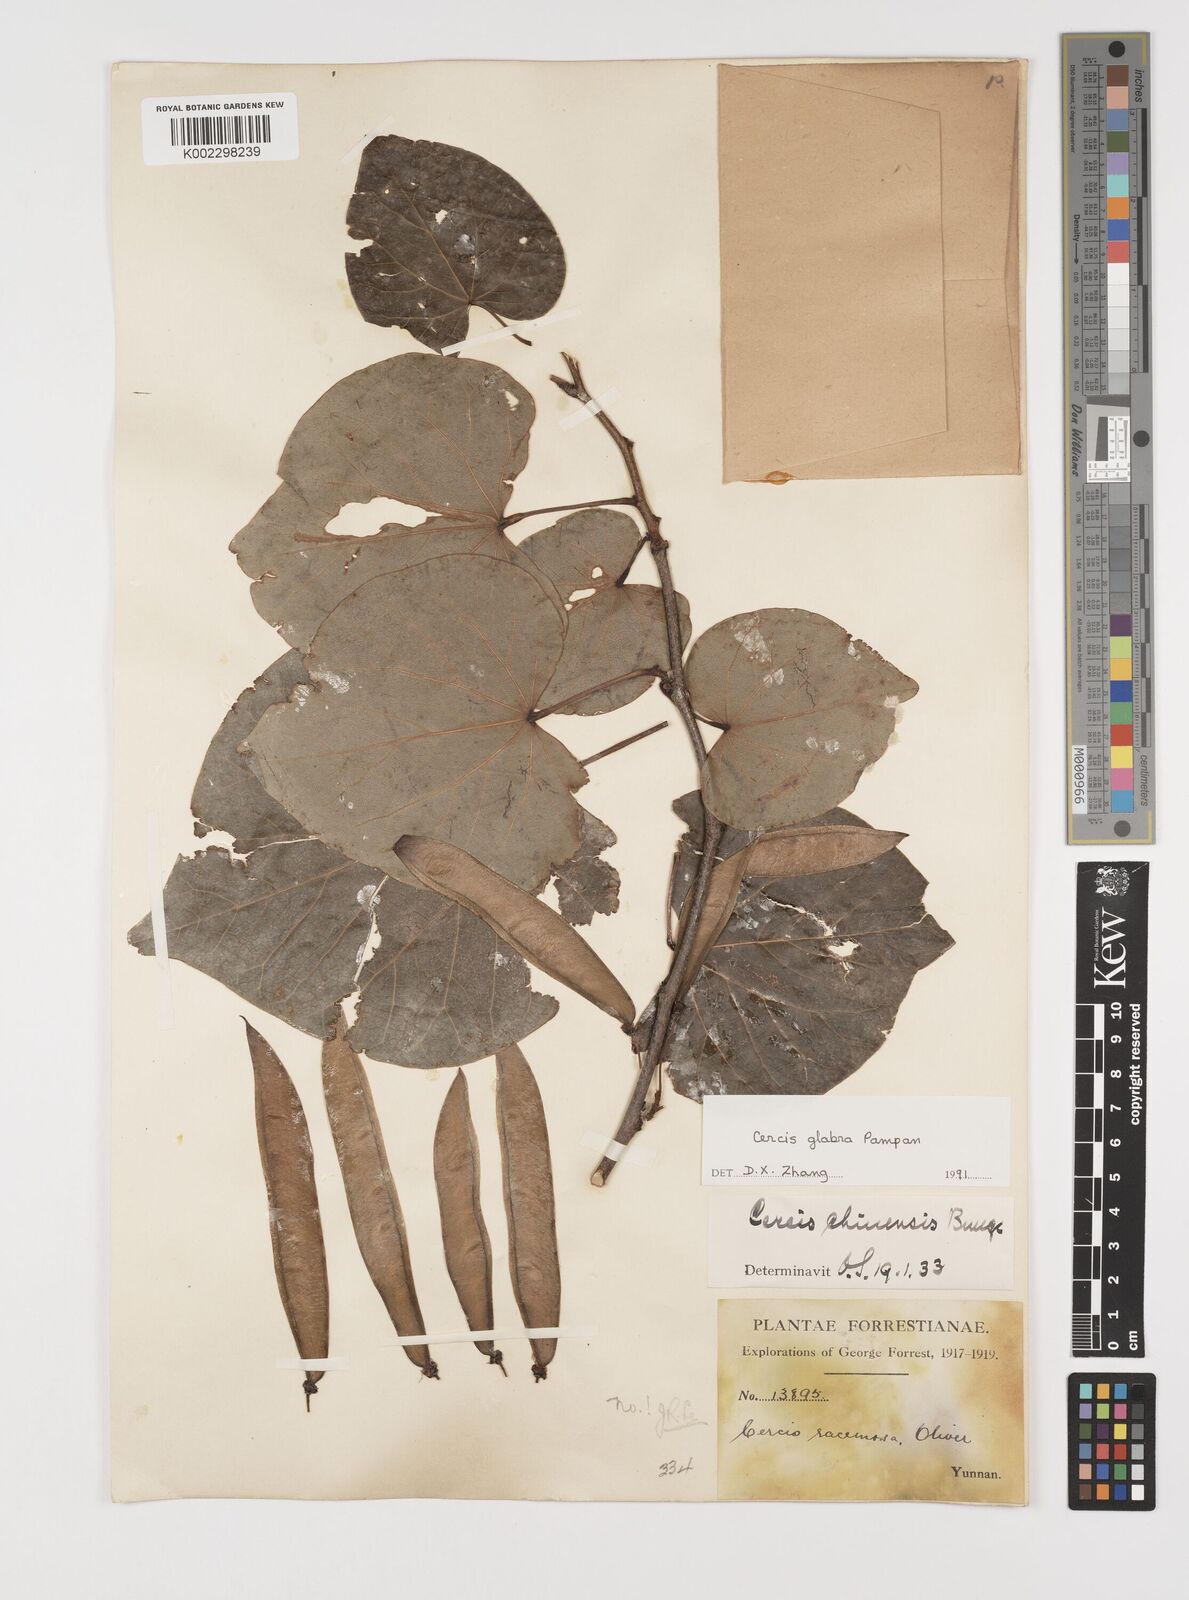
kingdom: Plantae
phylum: Tracheophyta
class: Magnoliopsida
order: Fabales
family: Fabaceae
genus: Cercis
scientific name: Cercis glabra
